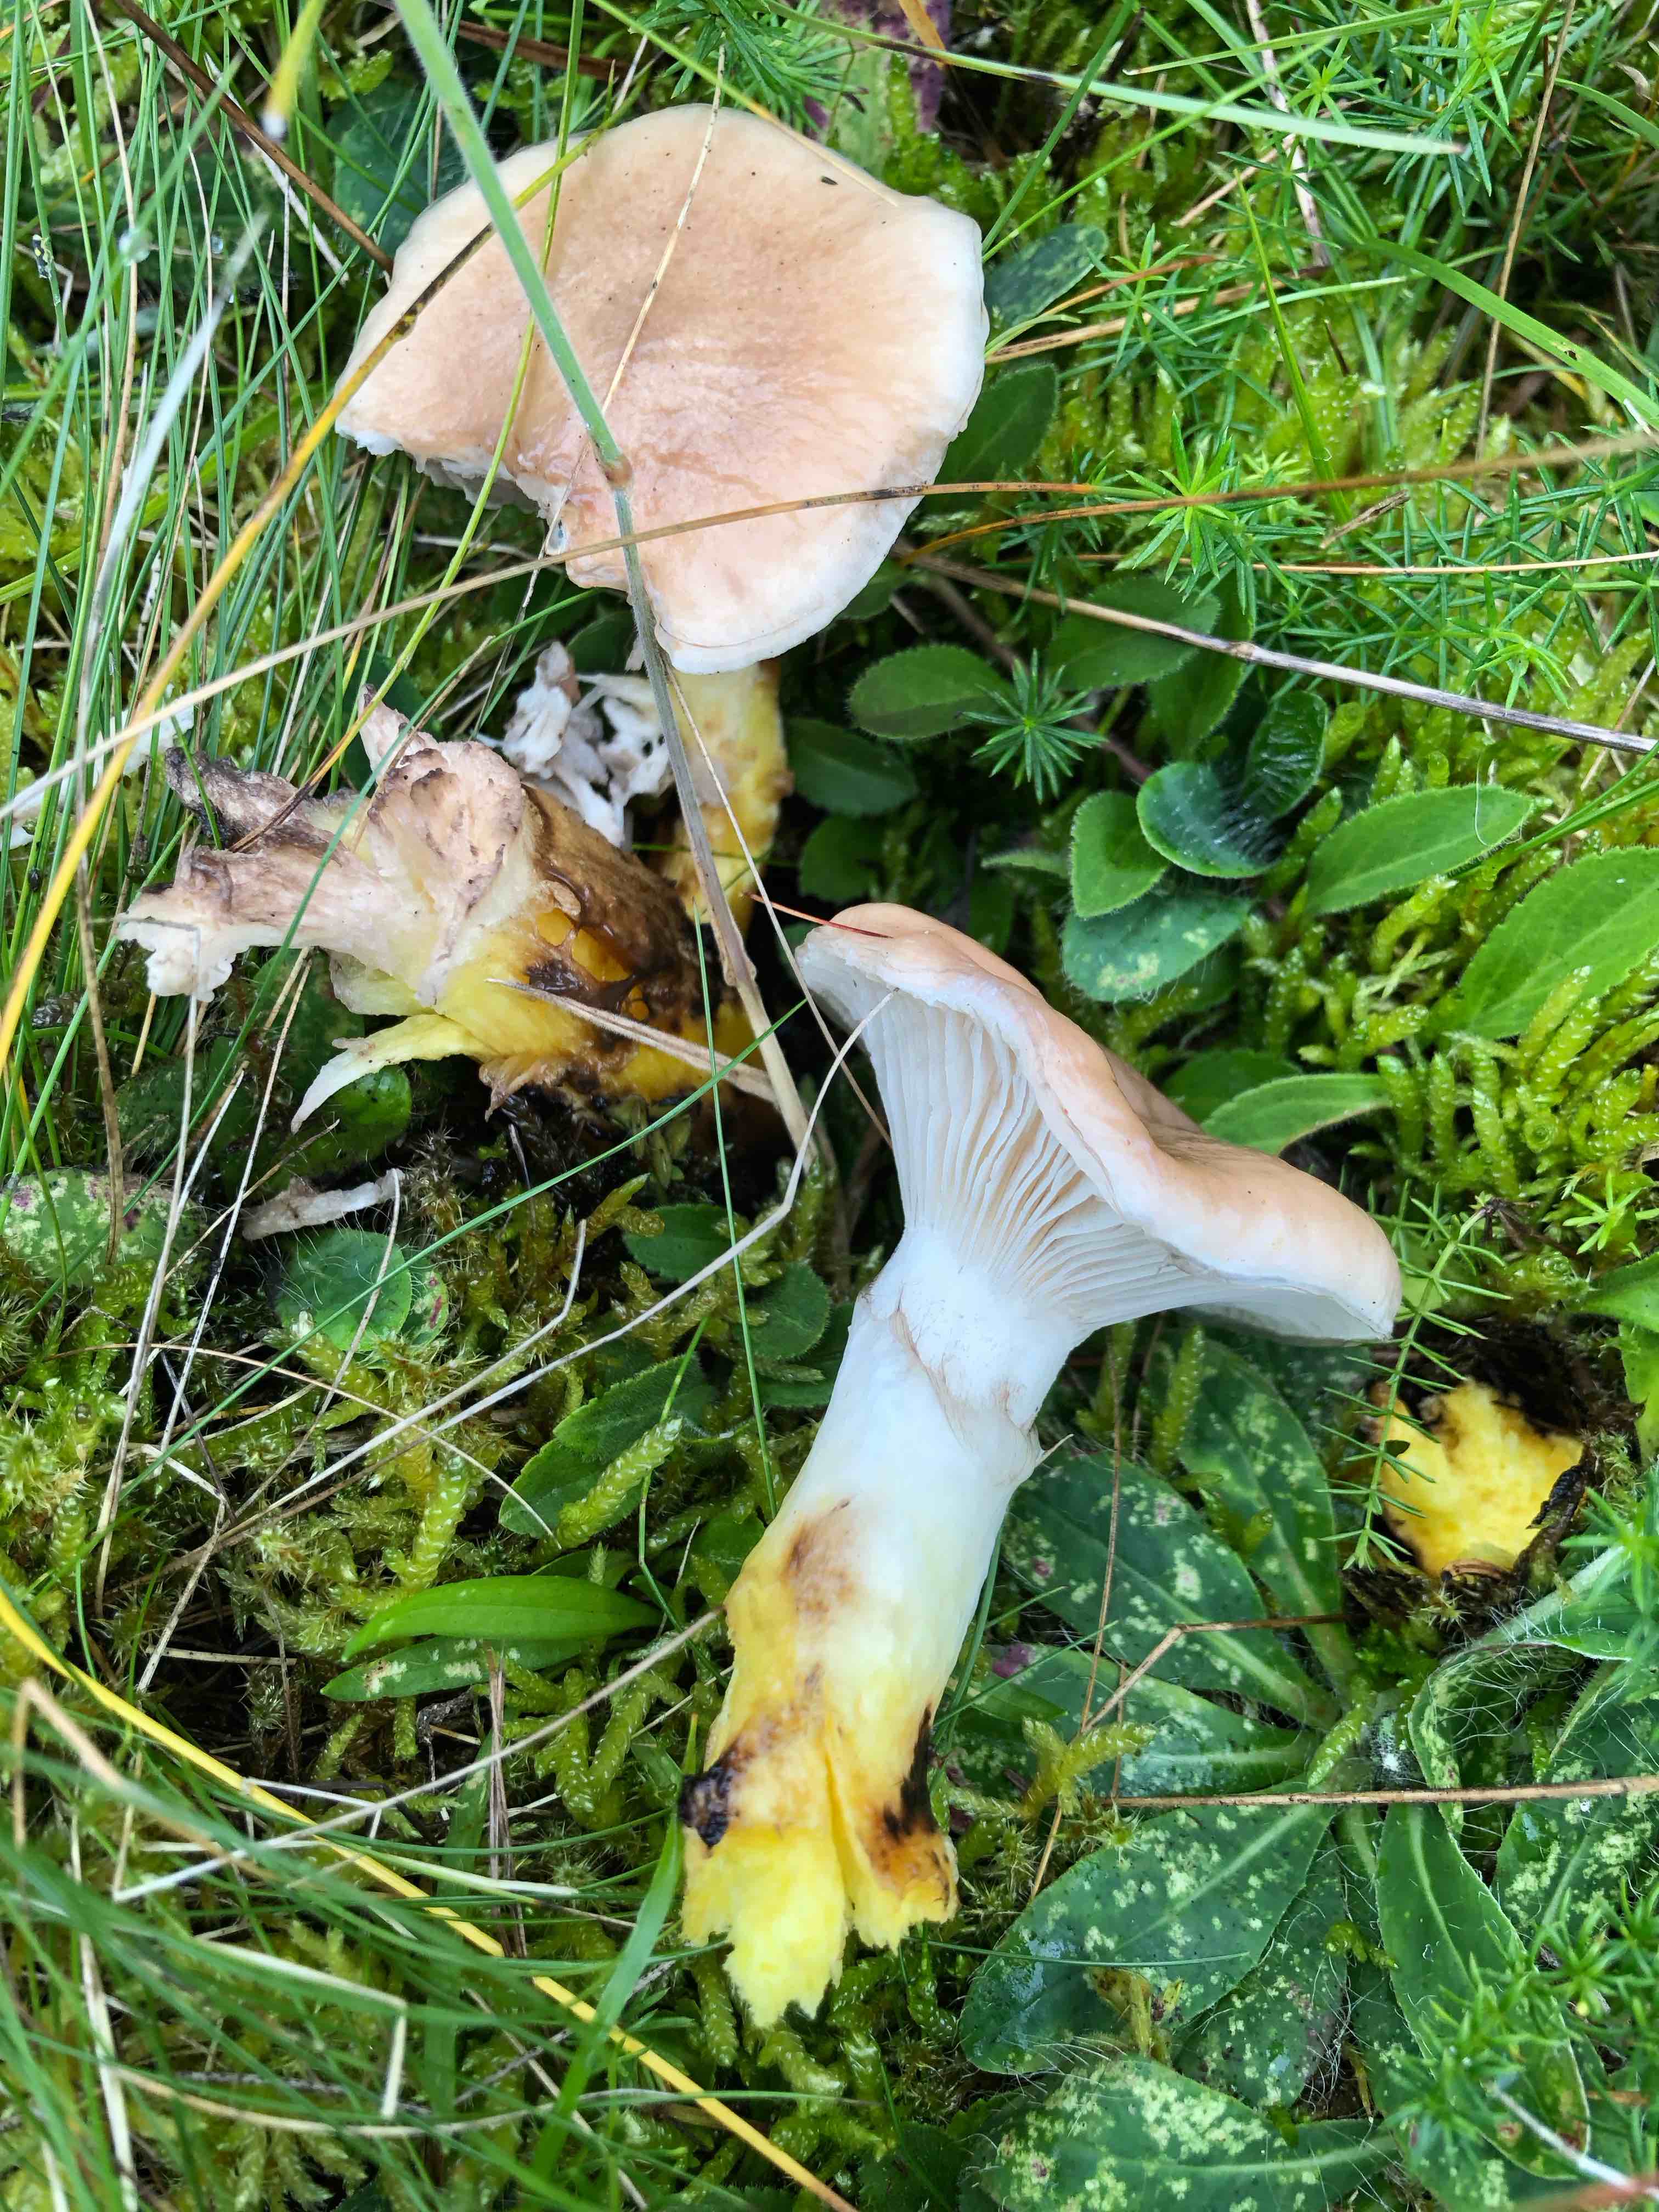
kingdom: Fungi
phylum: Basidiomycota
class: Agaricomycetes
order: Boletales
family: Gomphidiaceae
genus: Gomphidius
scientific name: Gomphidius glutinosus
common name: grå slimslør
